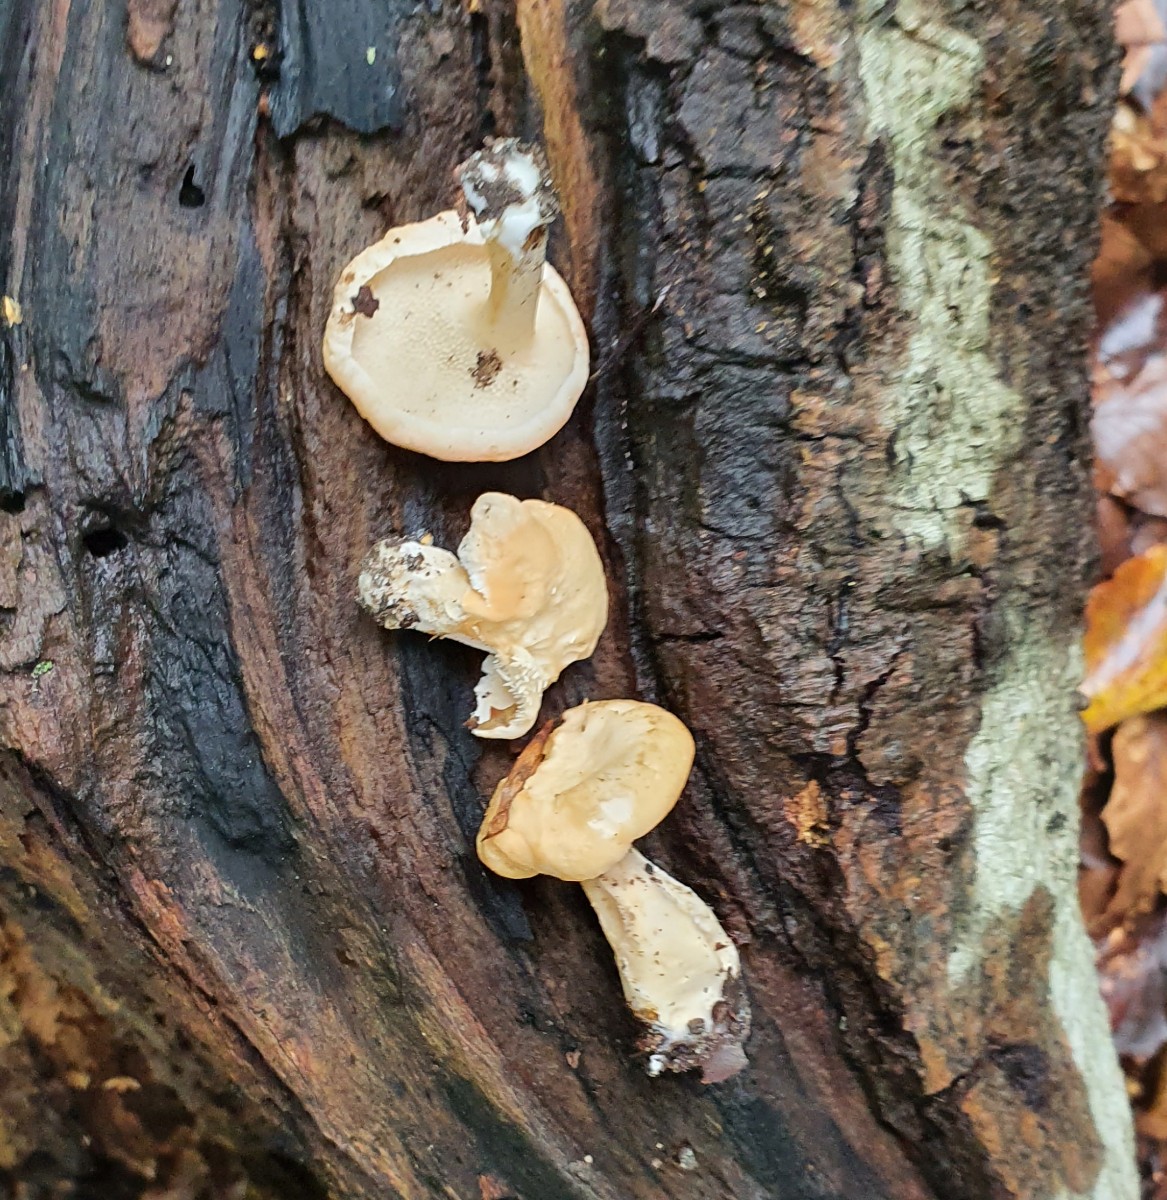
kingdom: Fungi
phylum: Basidiomycota
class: Agaricomycetes
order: Cantharellales
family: Hydnaceae
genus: Hydnum
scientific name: Hydnum
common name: pigsvamp
